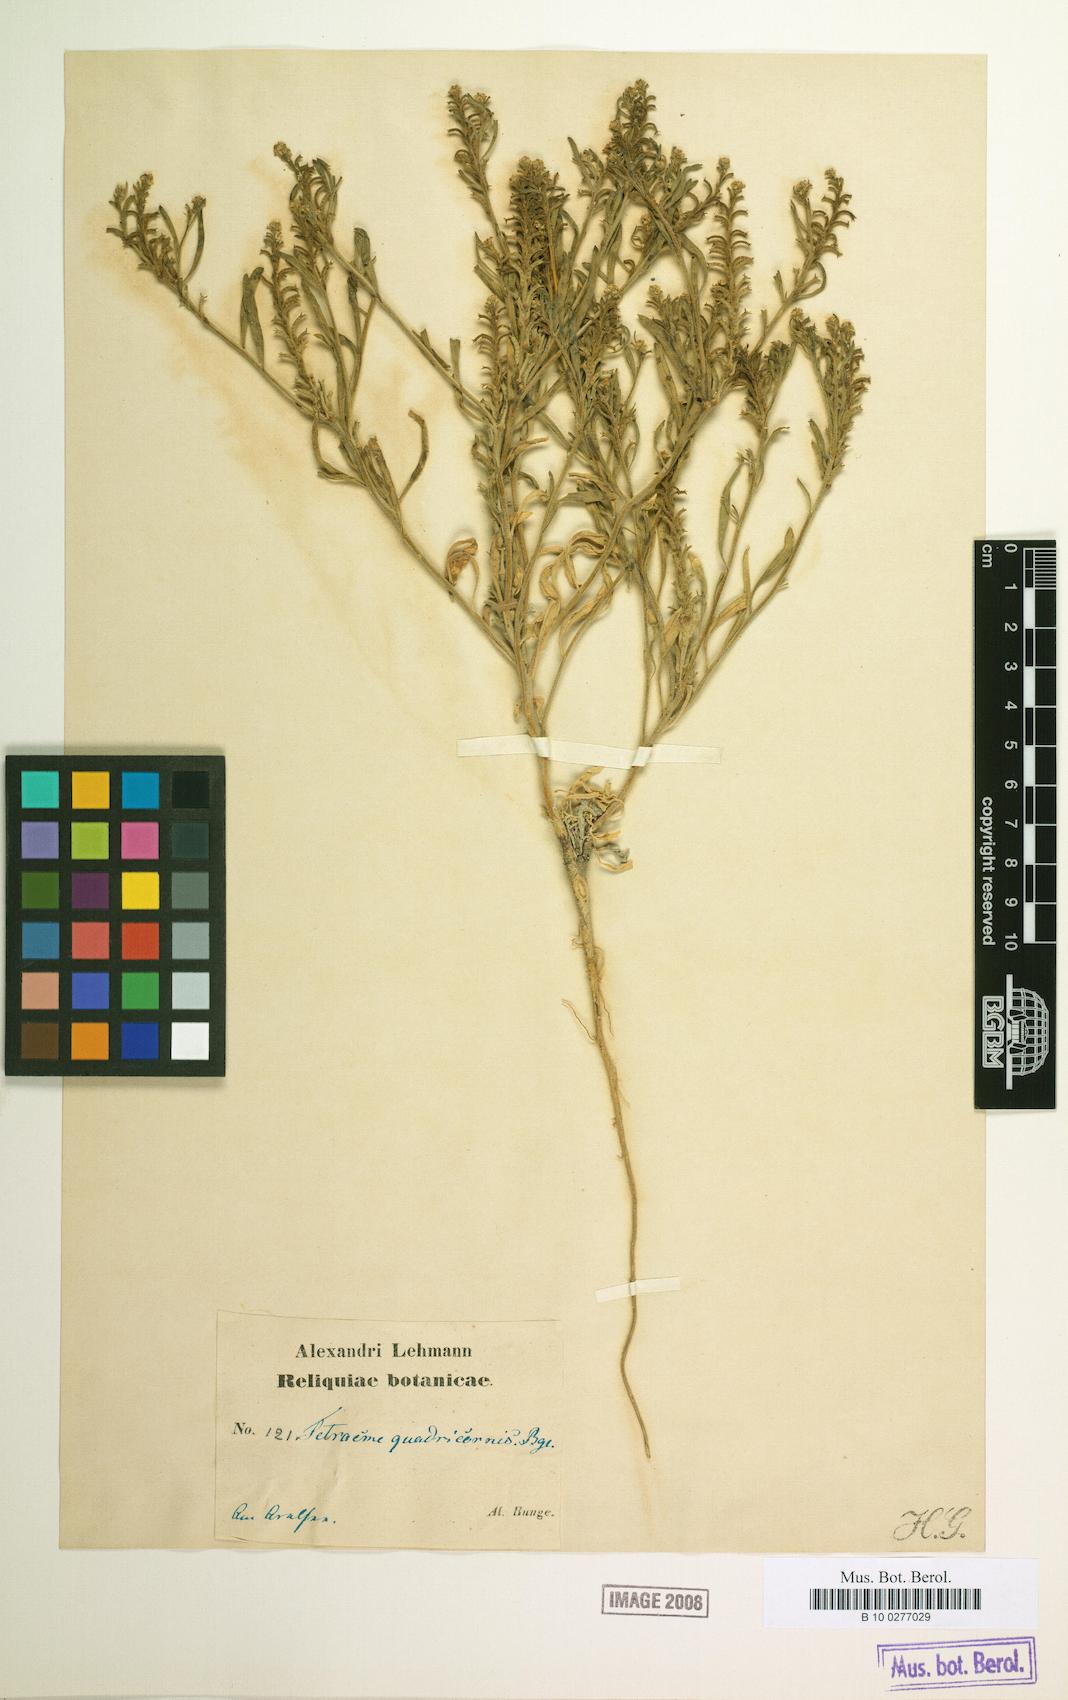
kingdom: Plantae
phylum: Tracheophyta
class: Magnoliopsida
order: Brassicales
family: Brassicaceae
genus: Tetracme
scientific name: Tetracme quadricornis
